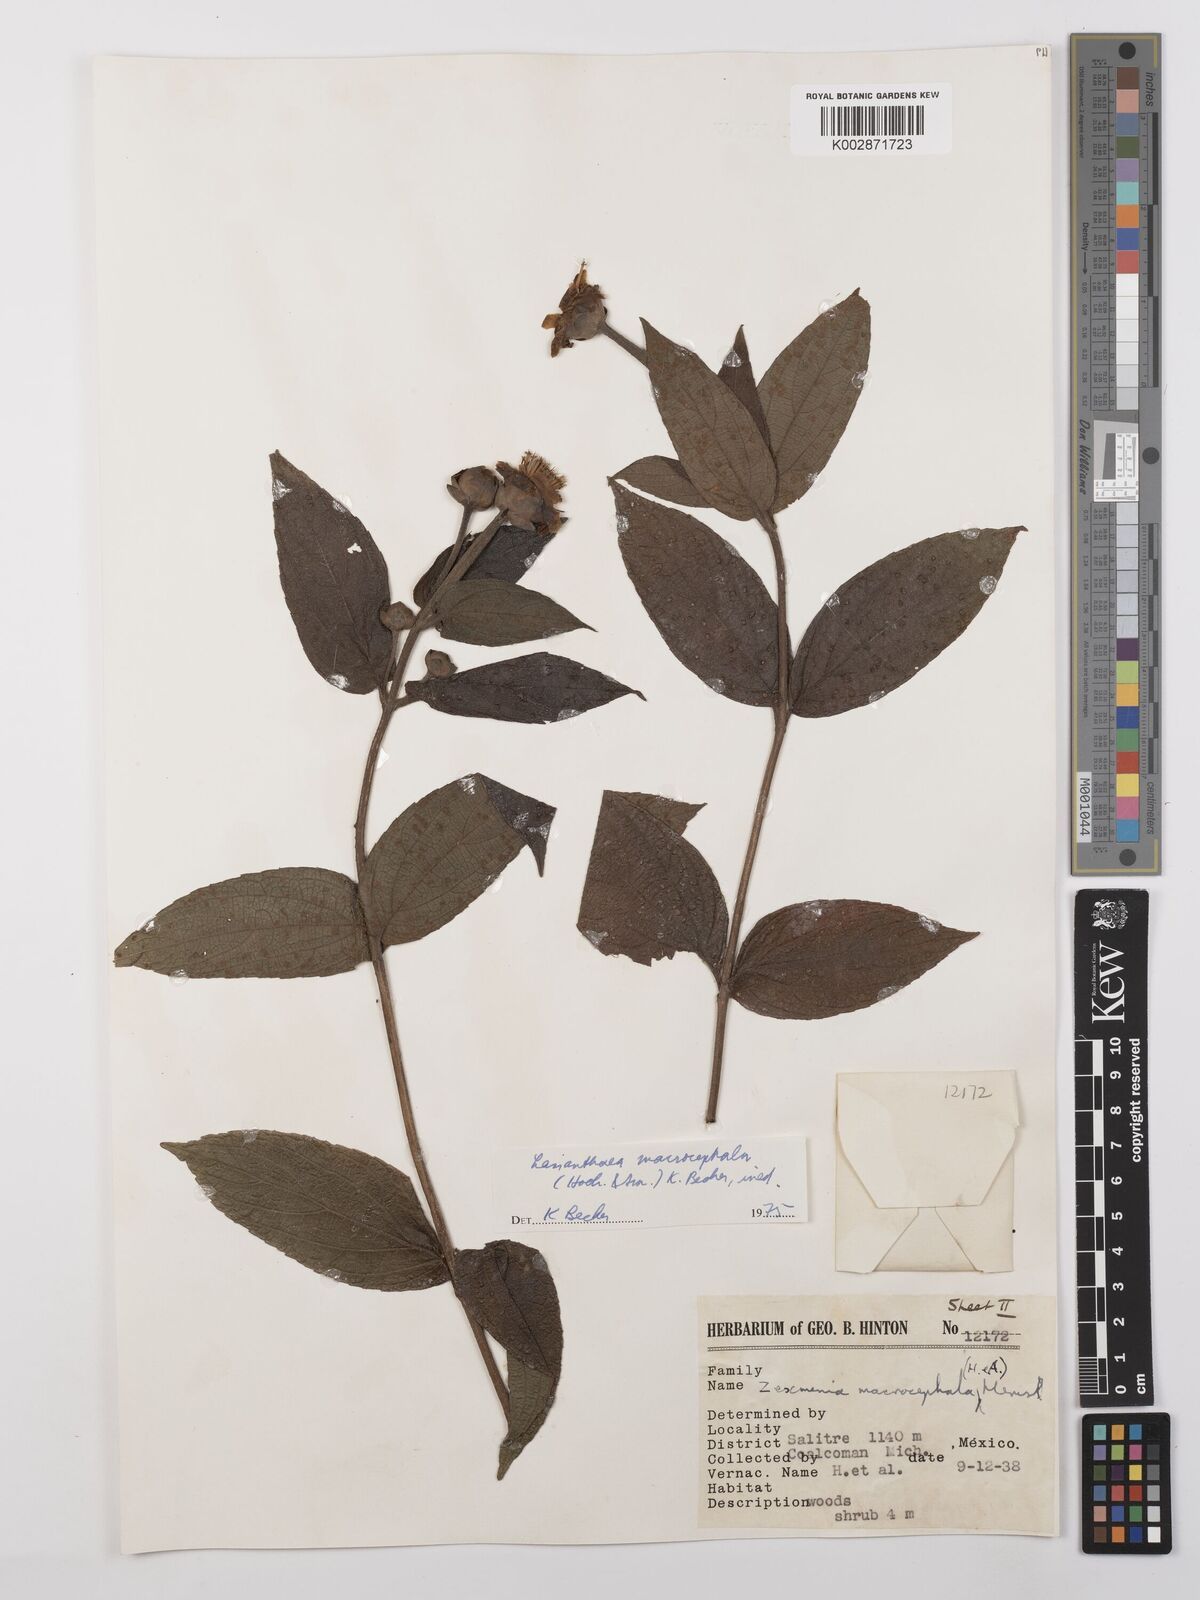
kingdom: Plantae
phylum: Tracheophyta
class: Magnoliopsida
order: Asterales
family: Asteraceae
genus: Lasianthaea
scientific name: Lasianthaea macrocephala
